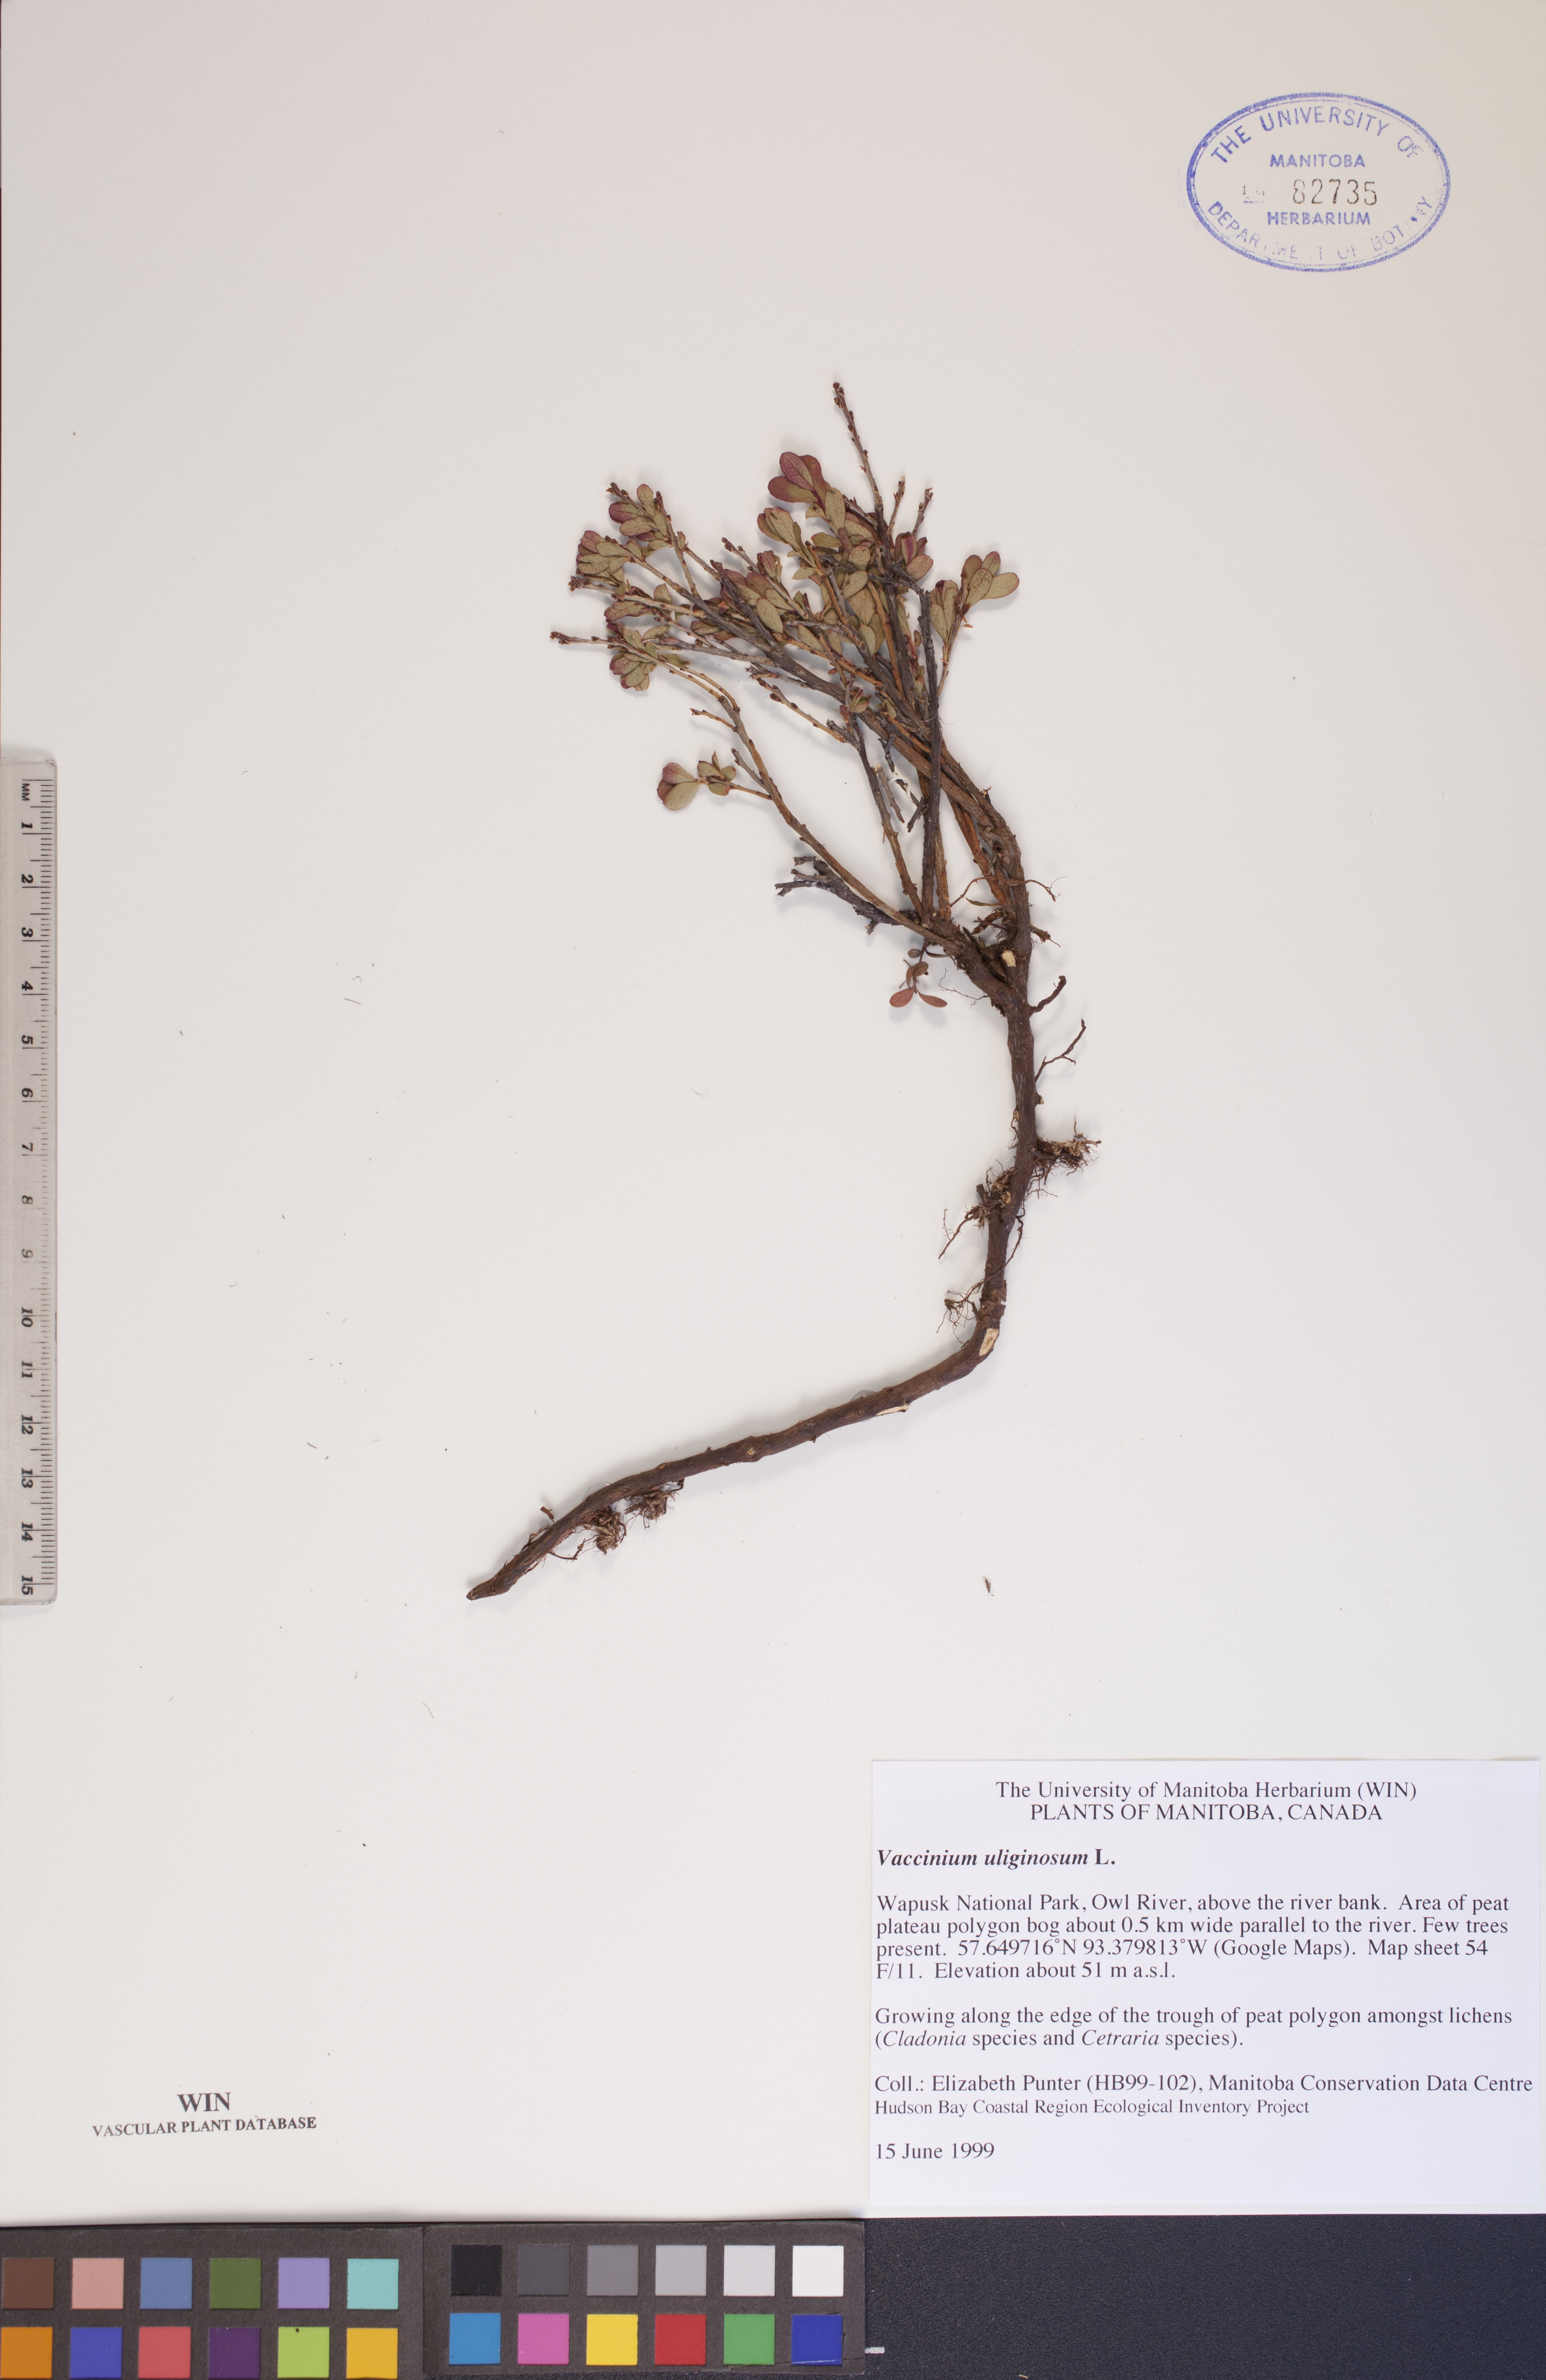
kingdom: Plantae
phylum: Tracheophyta
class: Magnoliopsida
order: Ericales
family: Ericaceae
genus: Vaccinium
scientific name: Vaccinium uliginosum
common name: Bog bilberry
